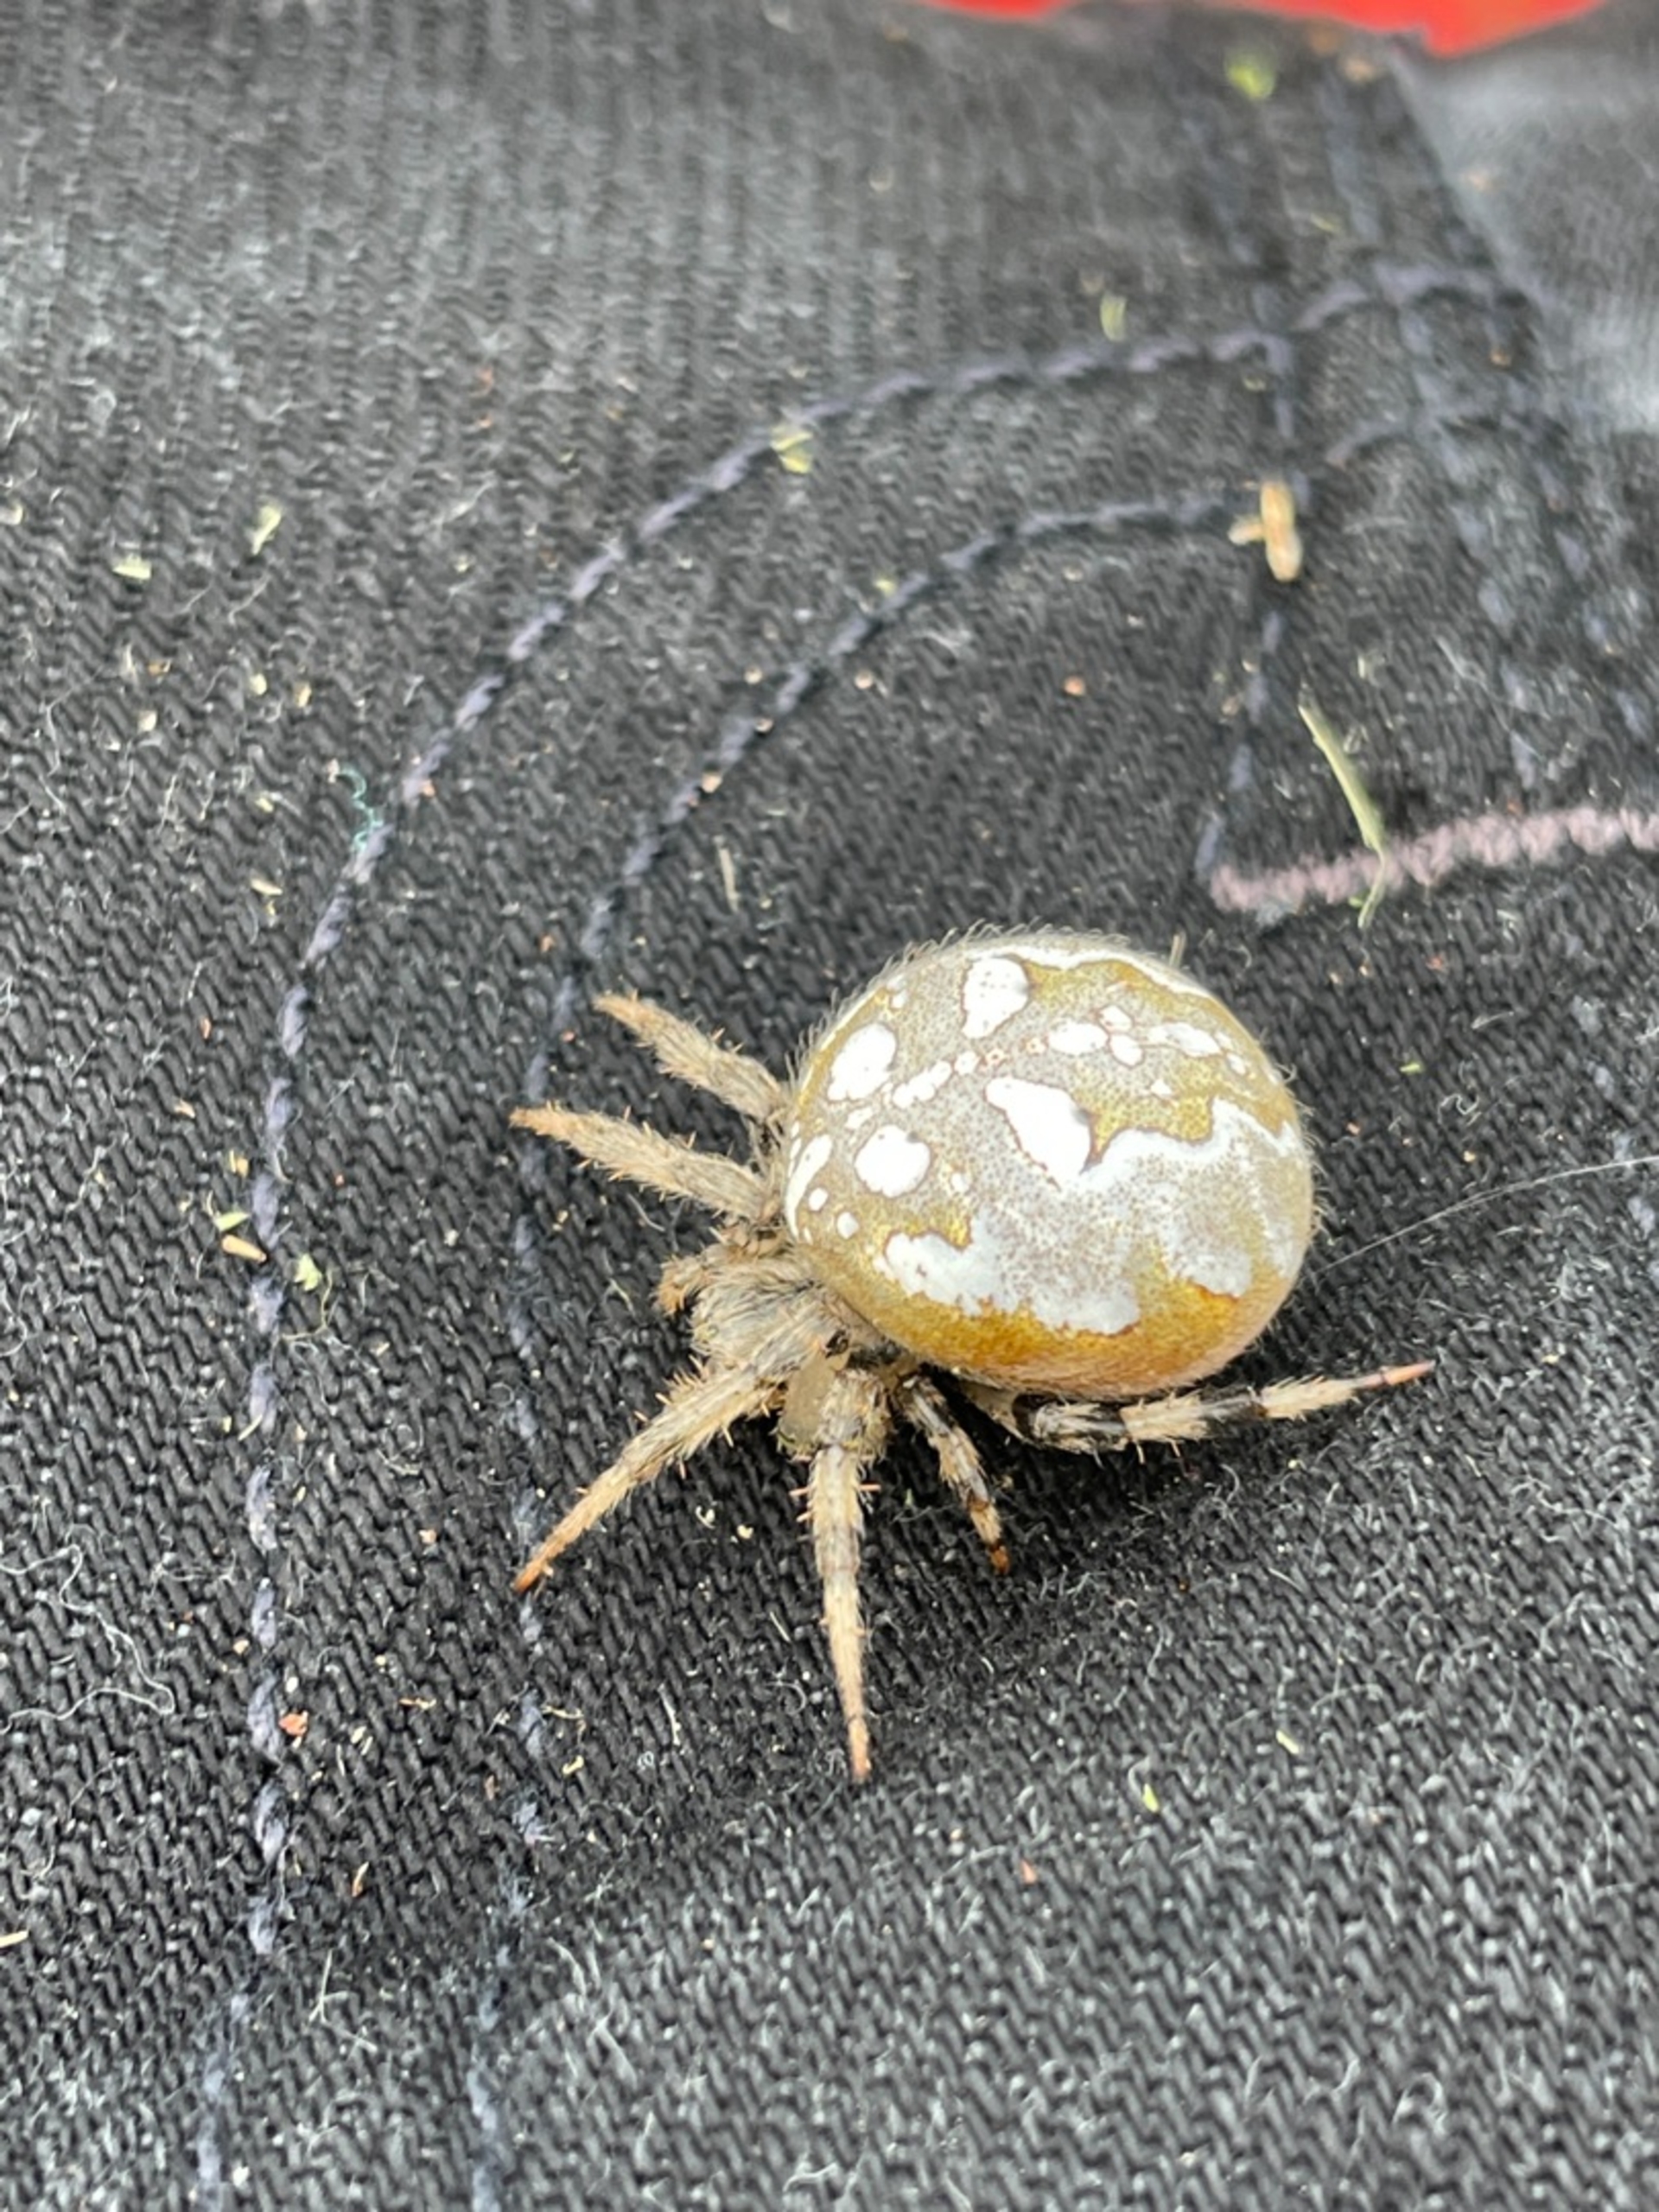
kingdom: Animalia
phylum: Arthropoda
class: Arachnida
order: Araneae
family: Araneidae
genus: Araneus
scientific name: Araneus quadratus
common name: Kvadratedderkop
